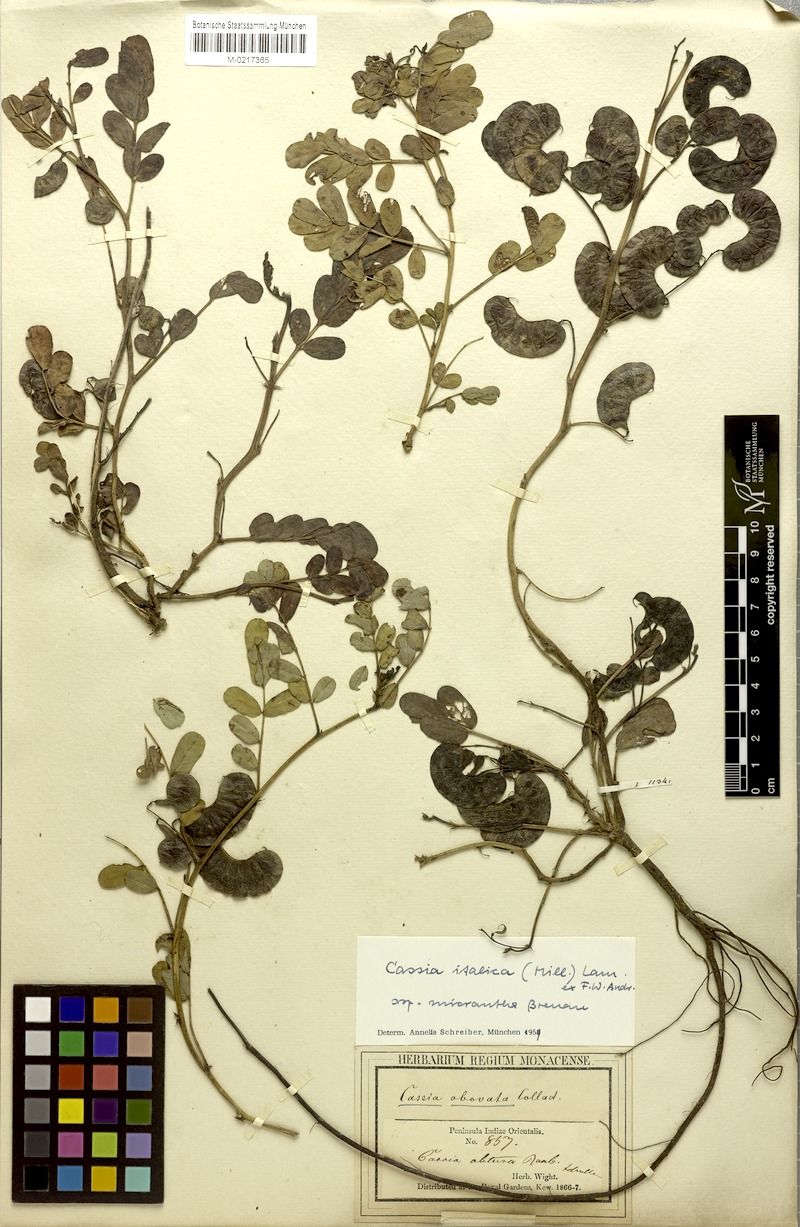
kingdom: Plantae
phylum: Tracheophyta
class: Magnoliopsida
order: Fabales
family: Fabaceae
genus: Senna
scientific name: Senna italica
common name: Port royal senna
